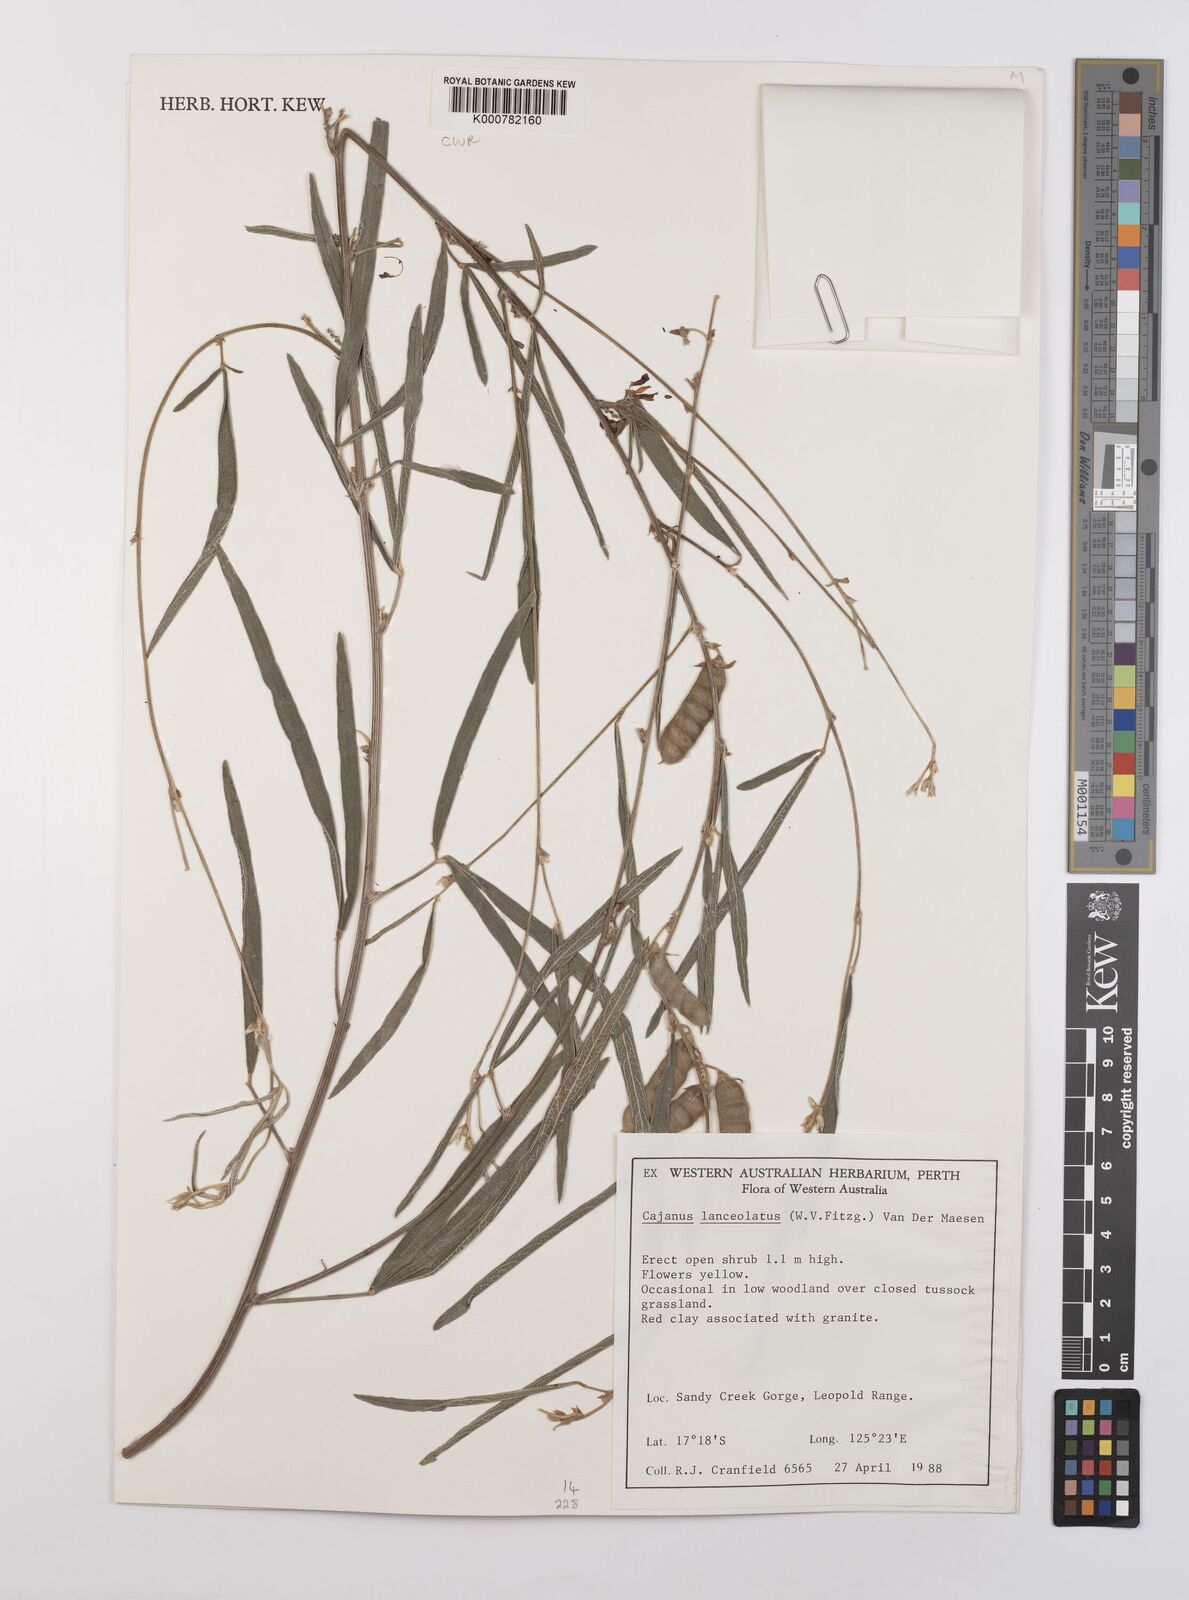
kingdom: Plantae
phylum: Tracheophyta
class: Magnoliopsida
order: Fabales
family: Fabaceae
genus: Cajanus
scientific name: Cajanus lanceolatus
